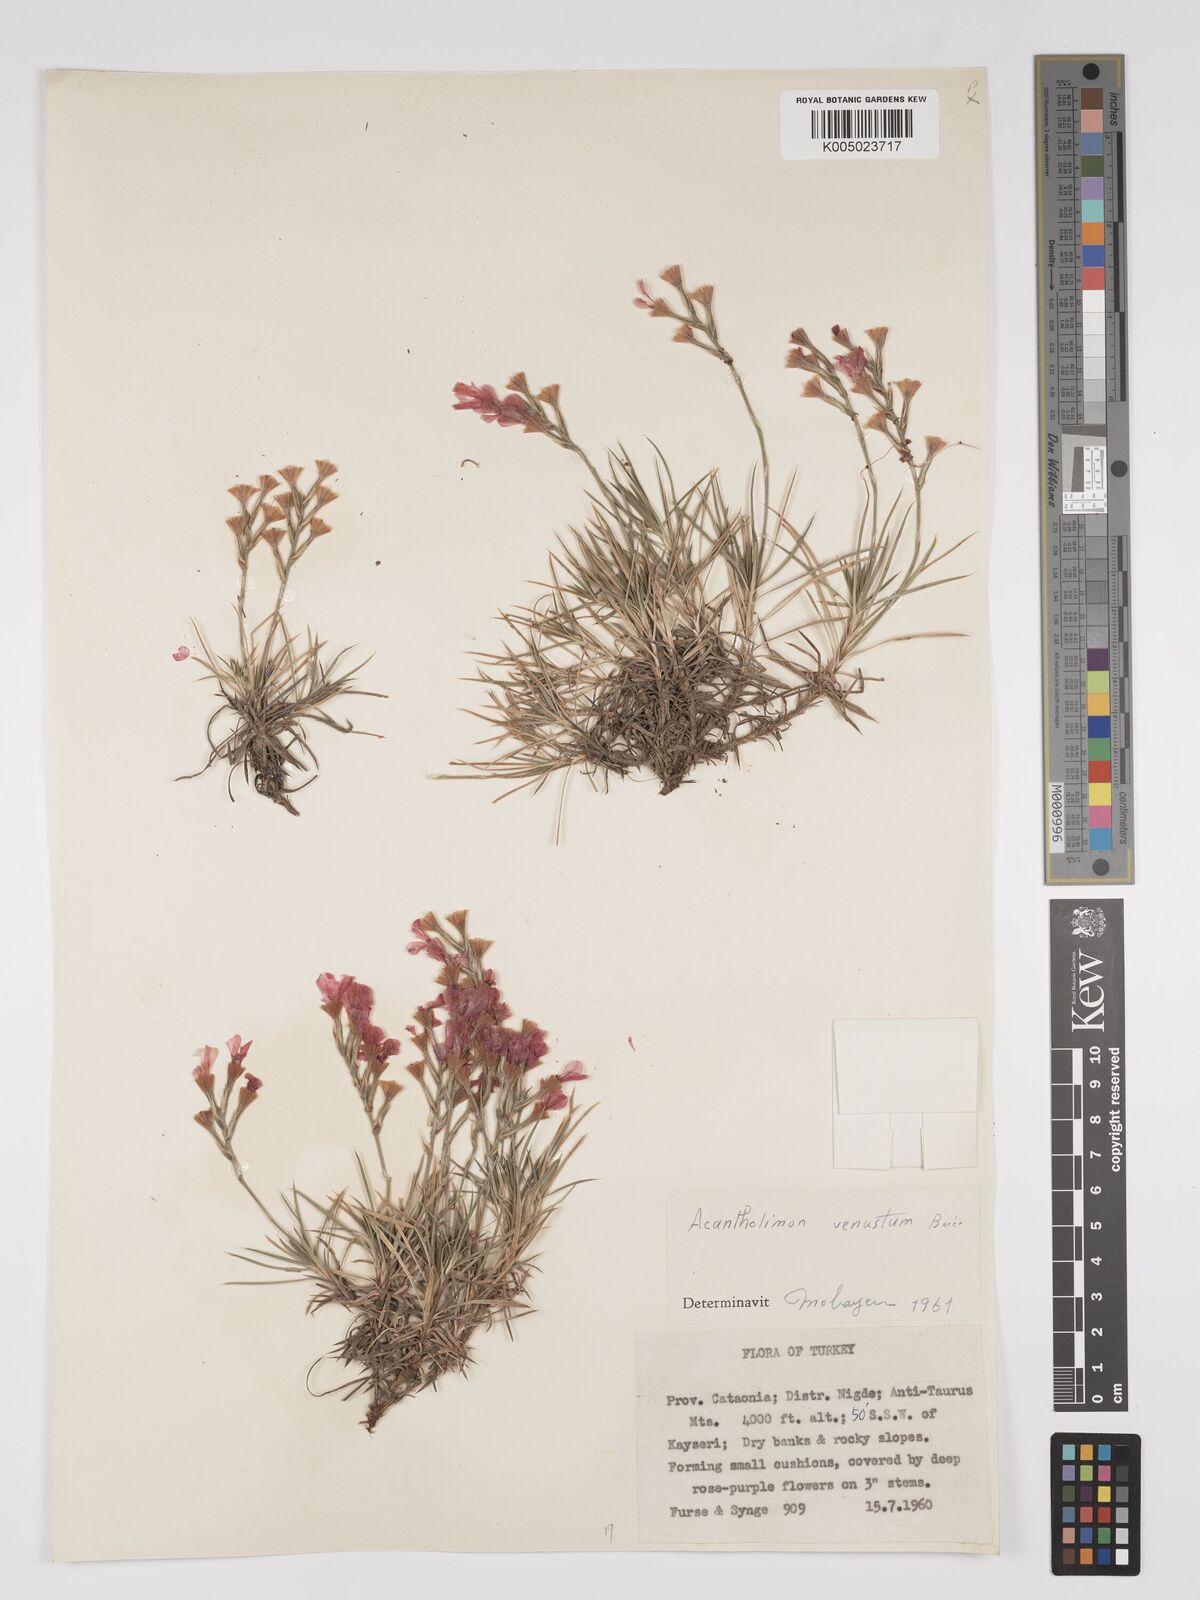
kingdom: Plantae
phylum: Tracheophyta
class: Magnoliopsida
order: Caryophyllales
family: Plumbaginaceae
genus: Acantholimon
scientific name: Acantholimon venustum
